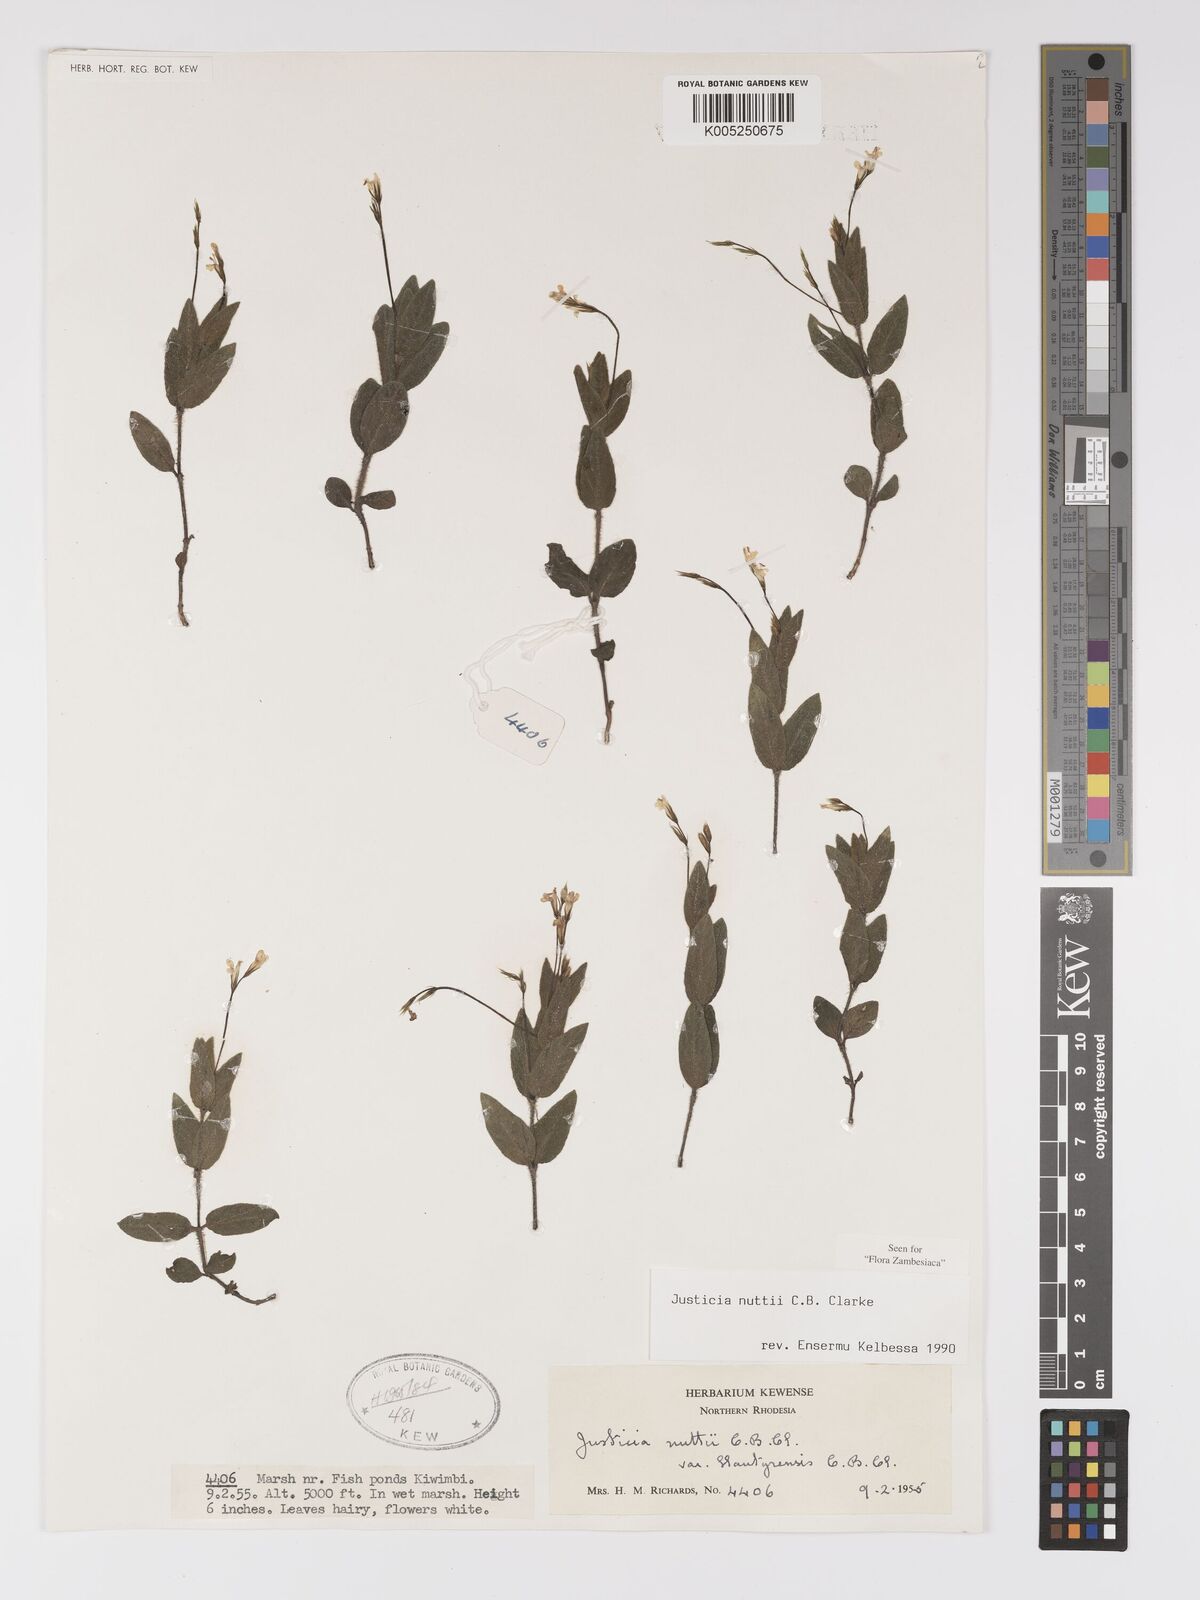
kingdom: Plantae
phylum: Tracheophyta
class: Magnoliopsida
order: Lamiales
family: Acanthaceae
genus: Justicia
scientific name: Justicia nuttii
